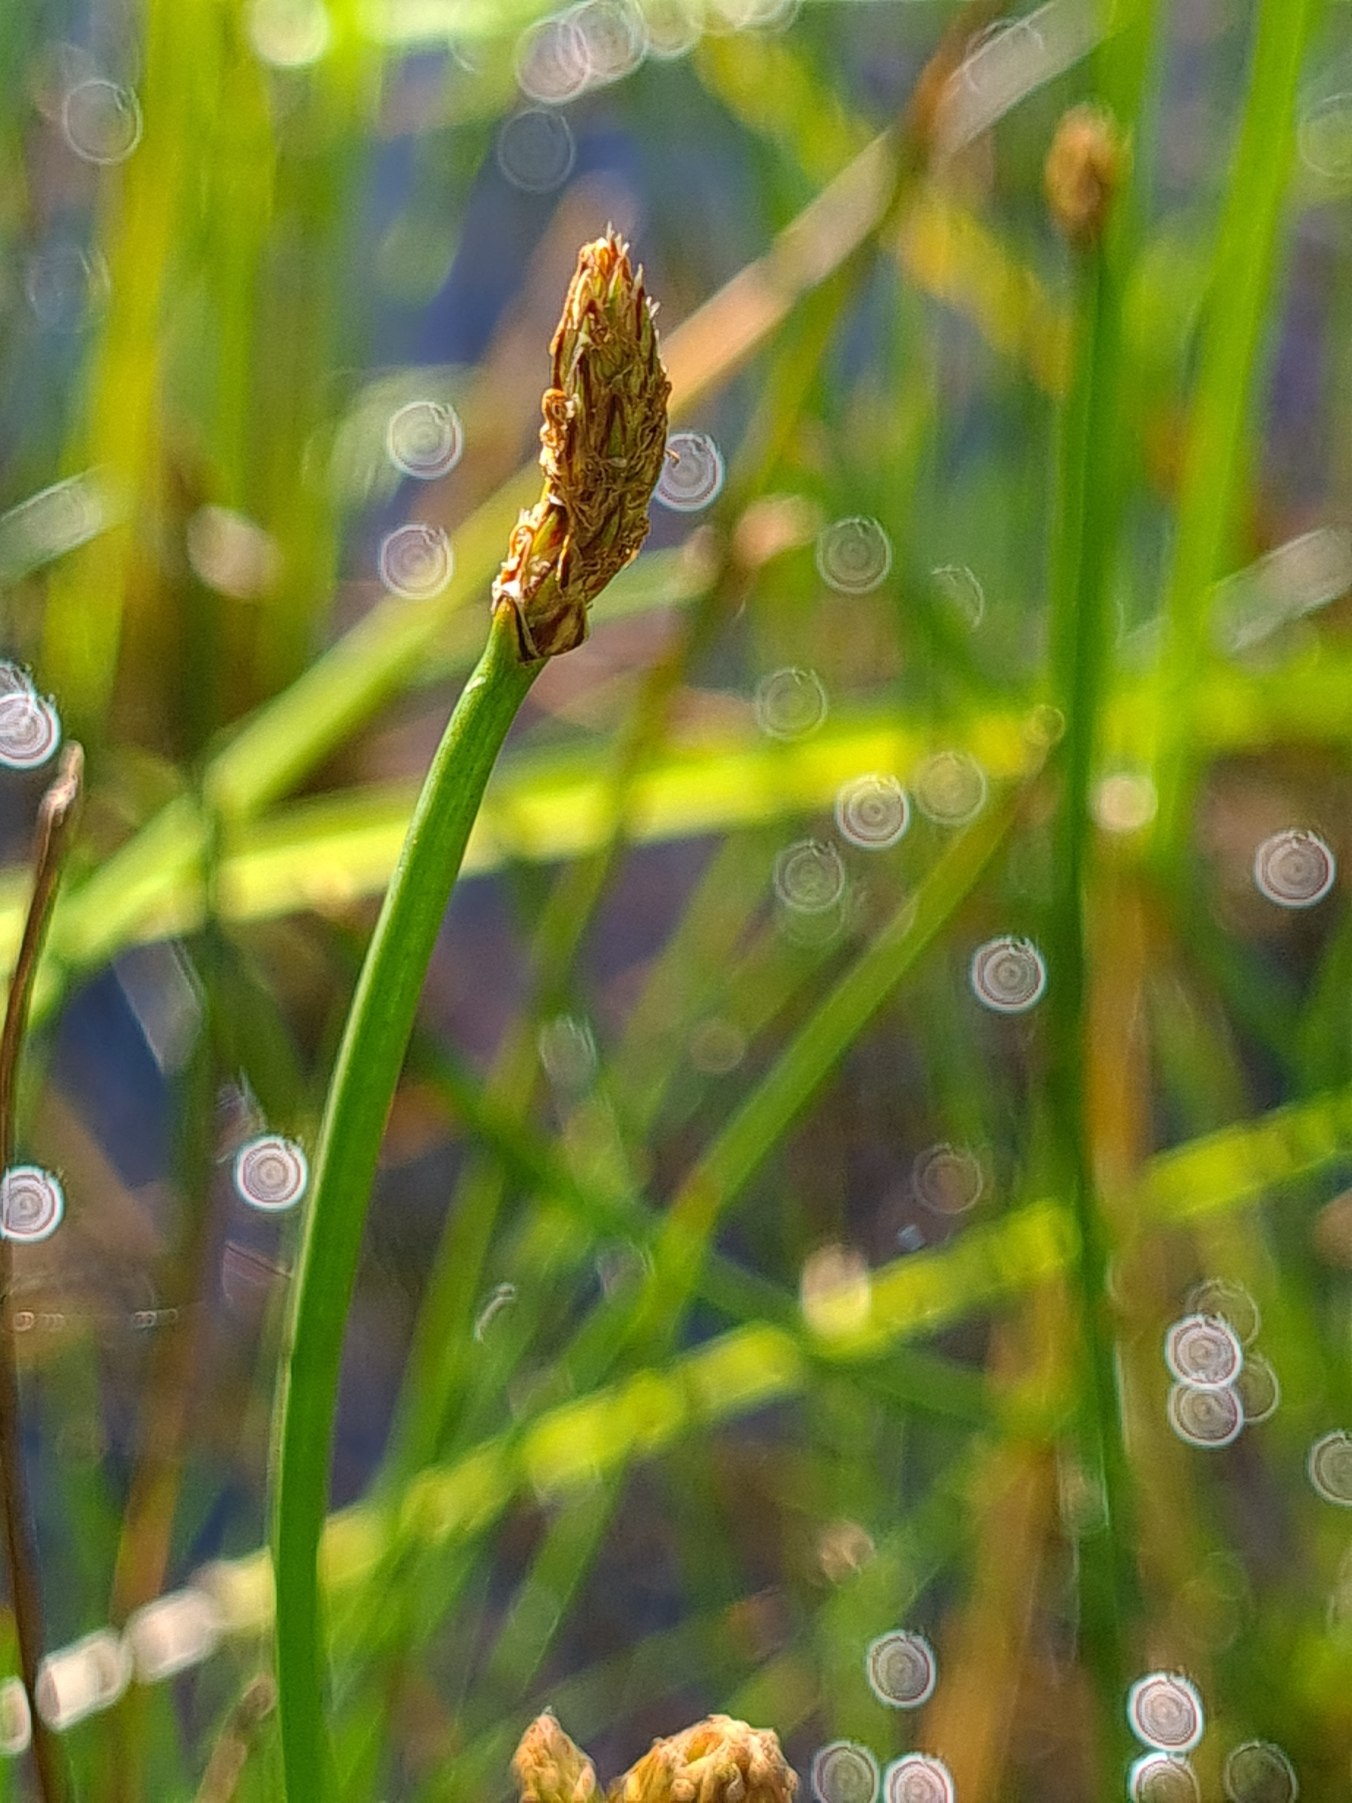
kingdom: Plantae
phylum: Tracheophyta
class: Liliopsida
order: Poales
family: Cyperaceae
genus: Eleocharis
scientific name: Eleocharis palustris
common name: Almindelig sumpstrå
